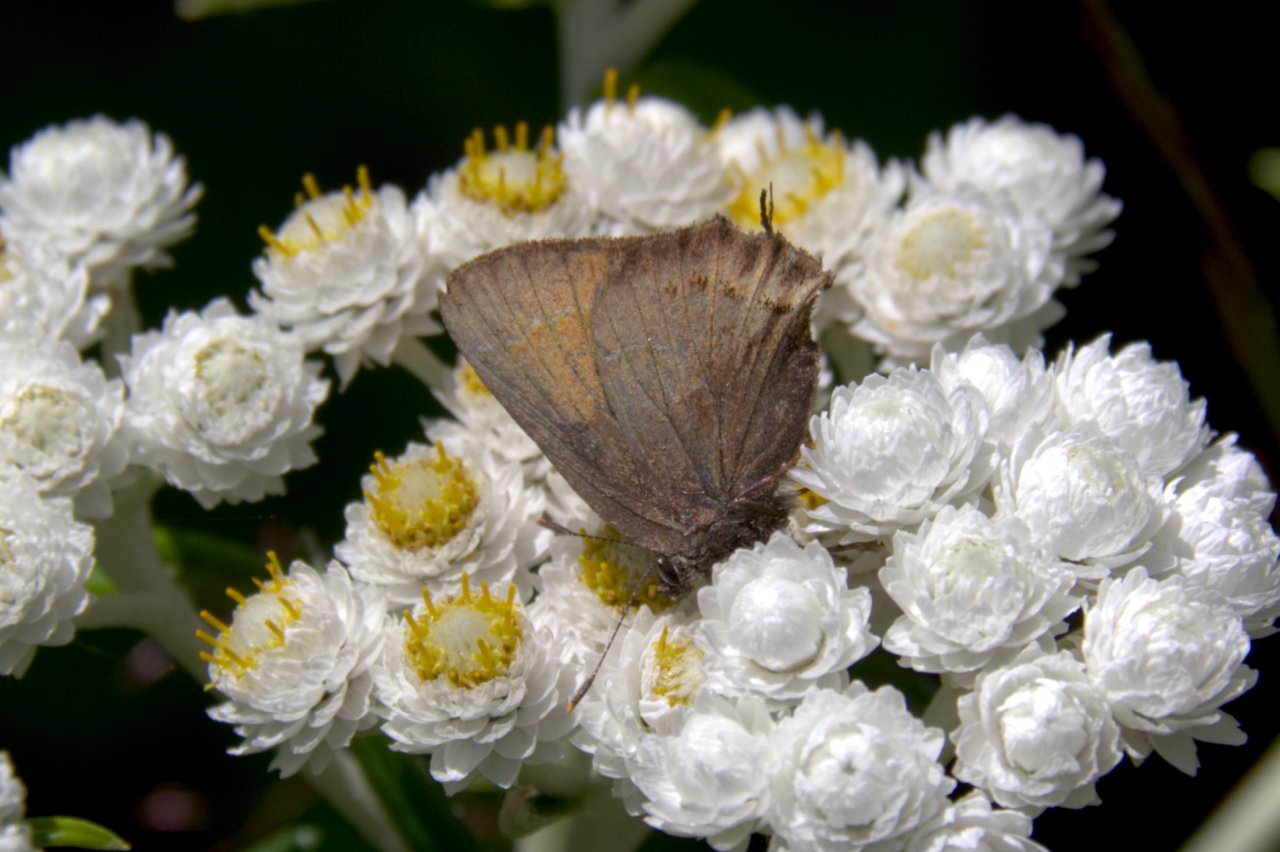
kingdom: Animalia
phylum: Arthropoda
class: Insecta
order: Lepidoptera
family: Lycaenidae
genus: Mitoura
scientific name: Mitoura gryneus
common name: Juniper Hairstreak
